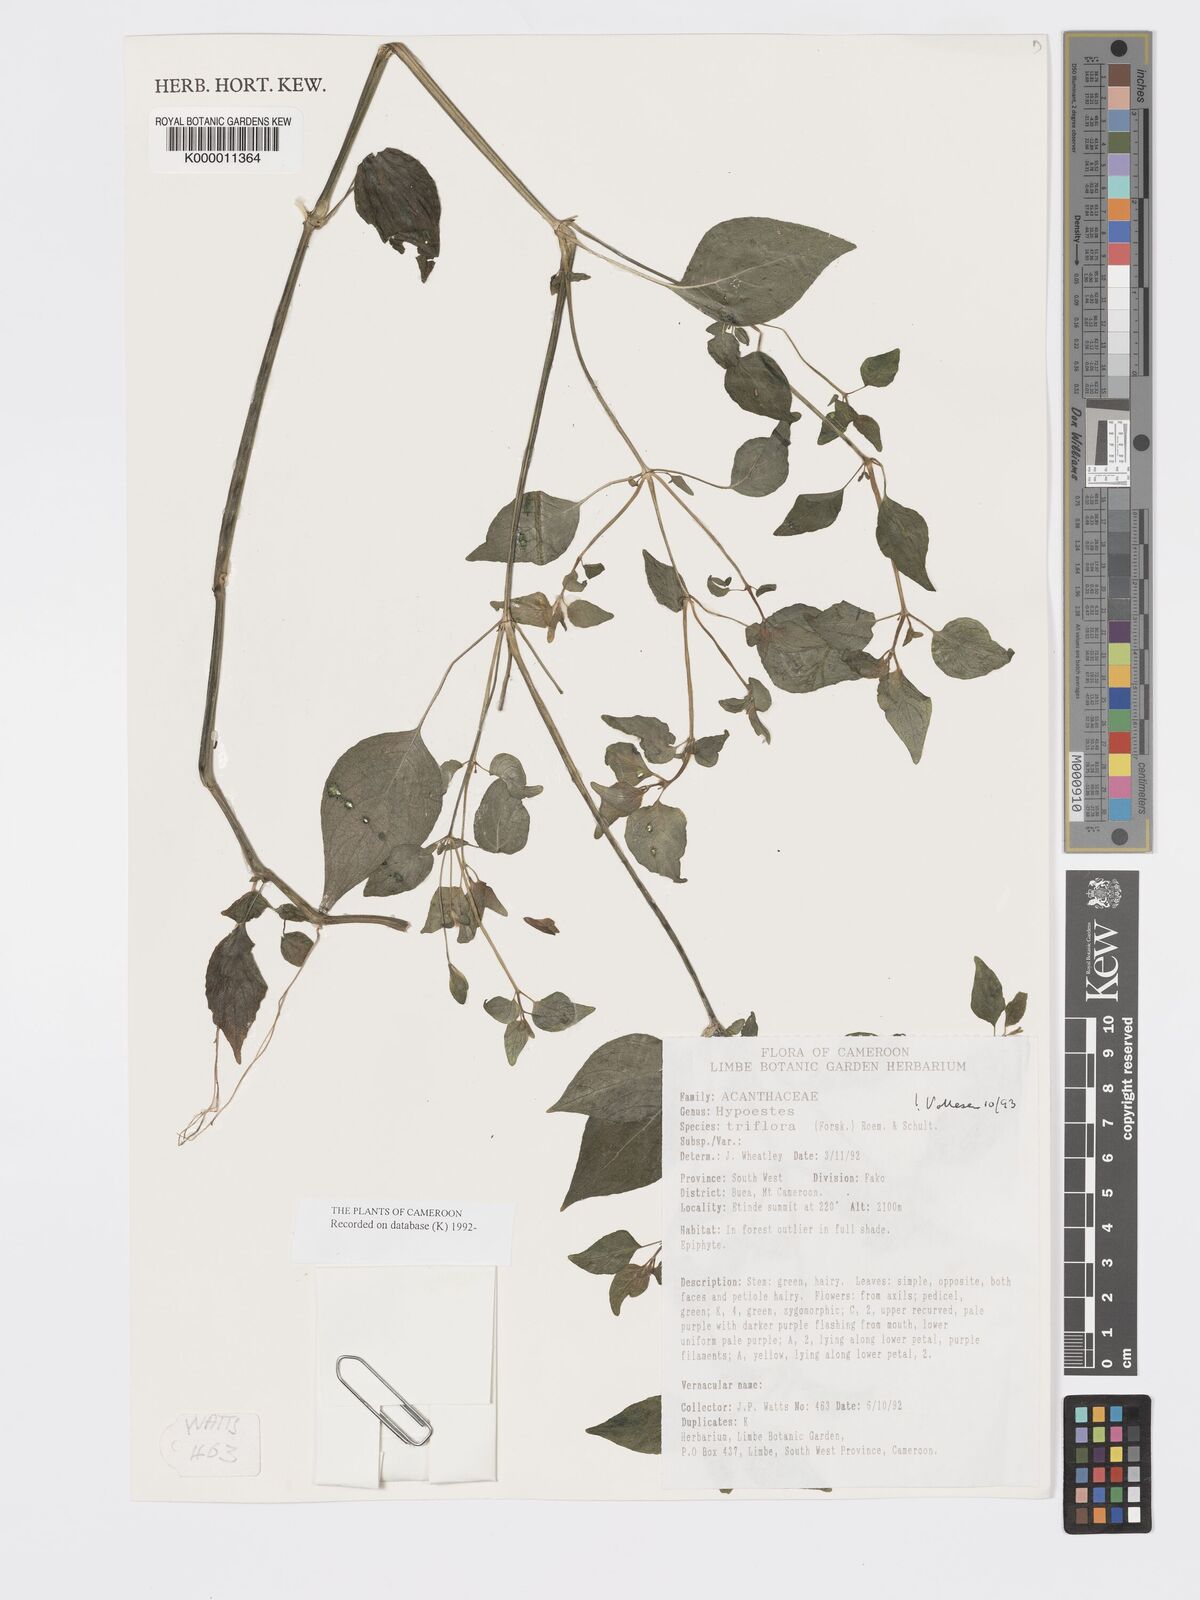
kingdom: Plantae
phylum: Tracheophyta
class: Magnoliopsida
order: Lamiales
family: Acanthaceae
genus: Hypoestes
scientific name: Hypoestes triflora
